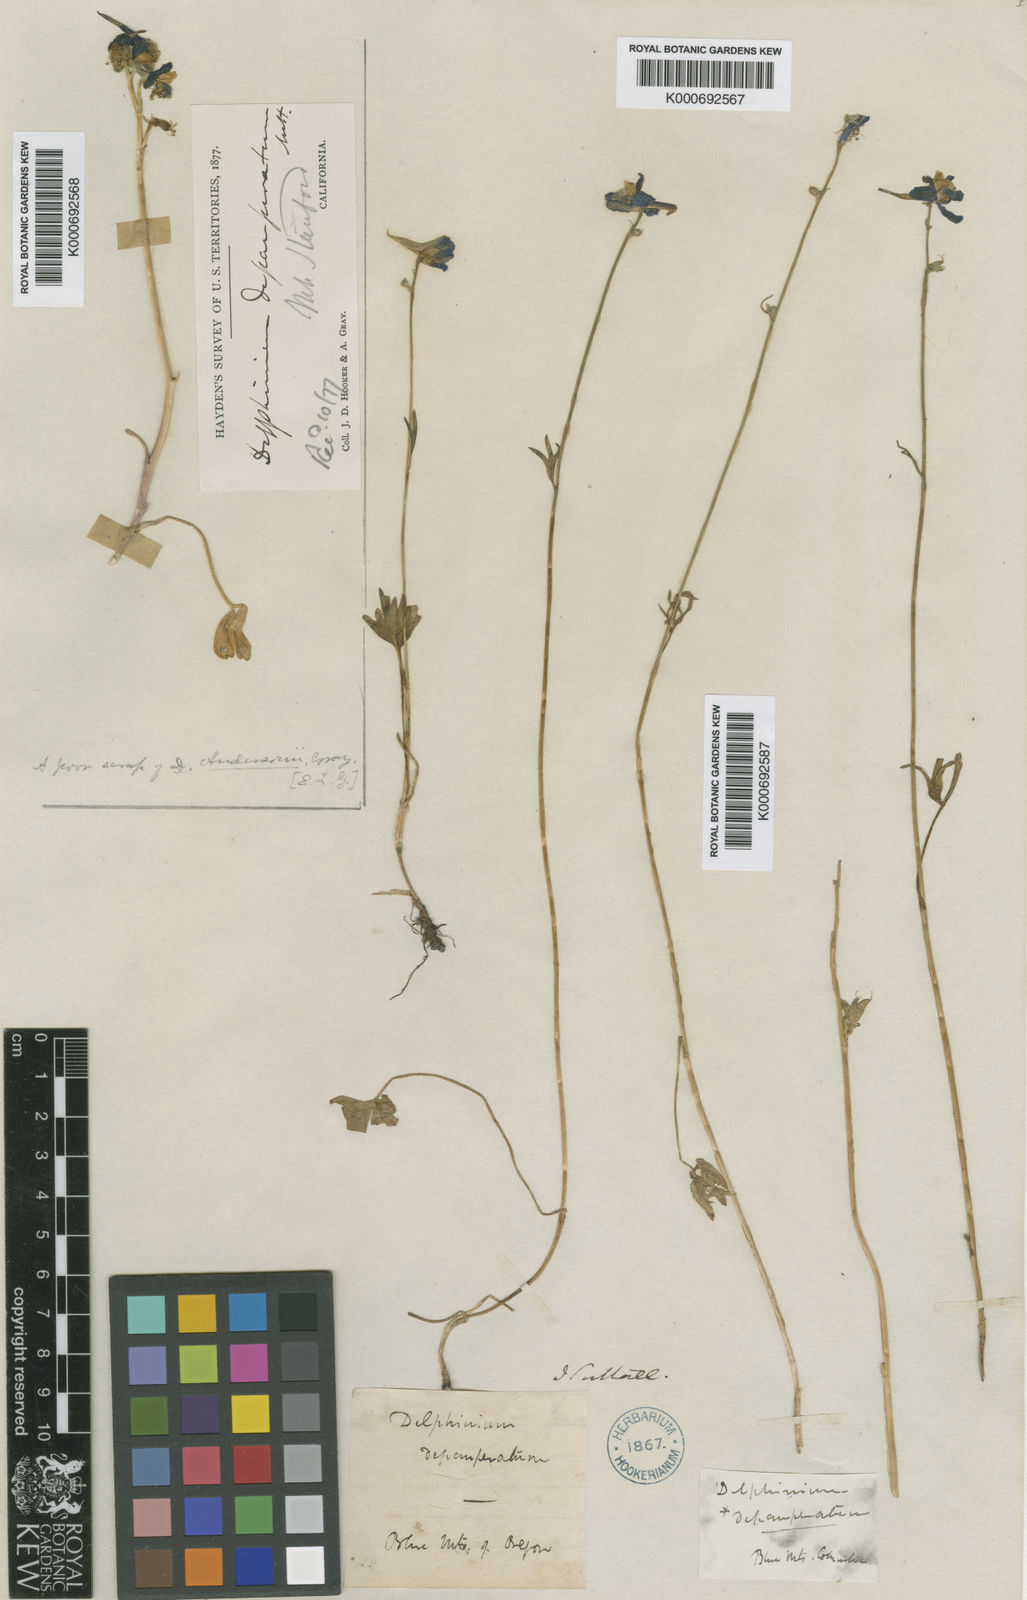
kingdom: Plantae
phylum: Tracheophyta
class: Magnoliopsida
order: Ranunculales
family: Ranunculaceae
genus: Delphinium
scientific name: Delphinium
